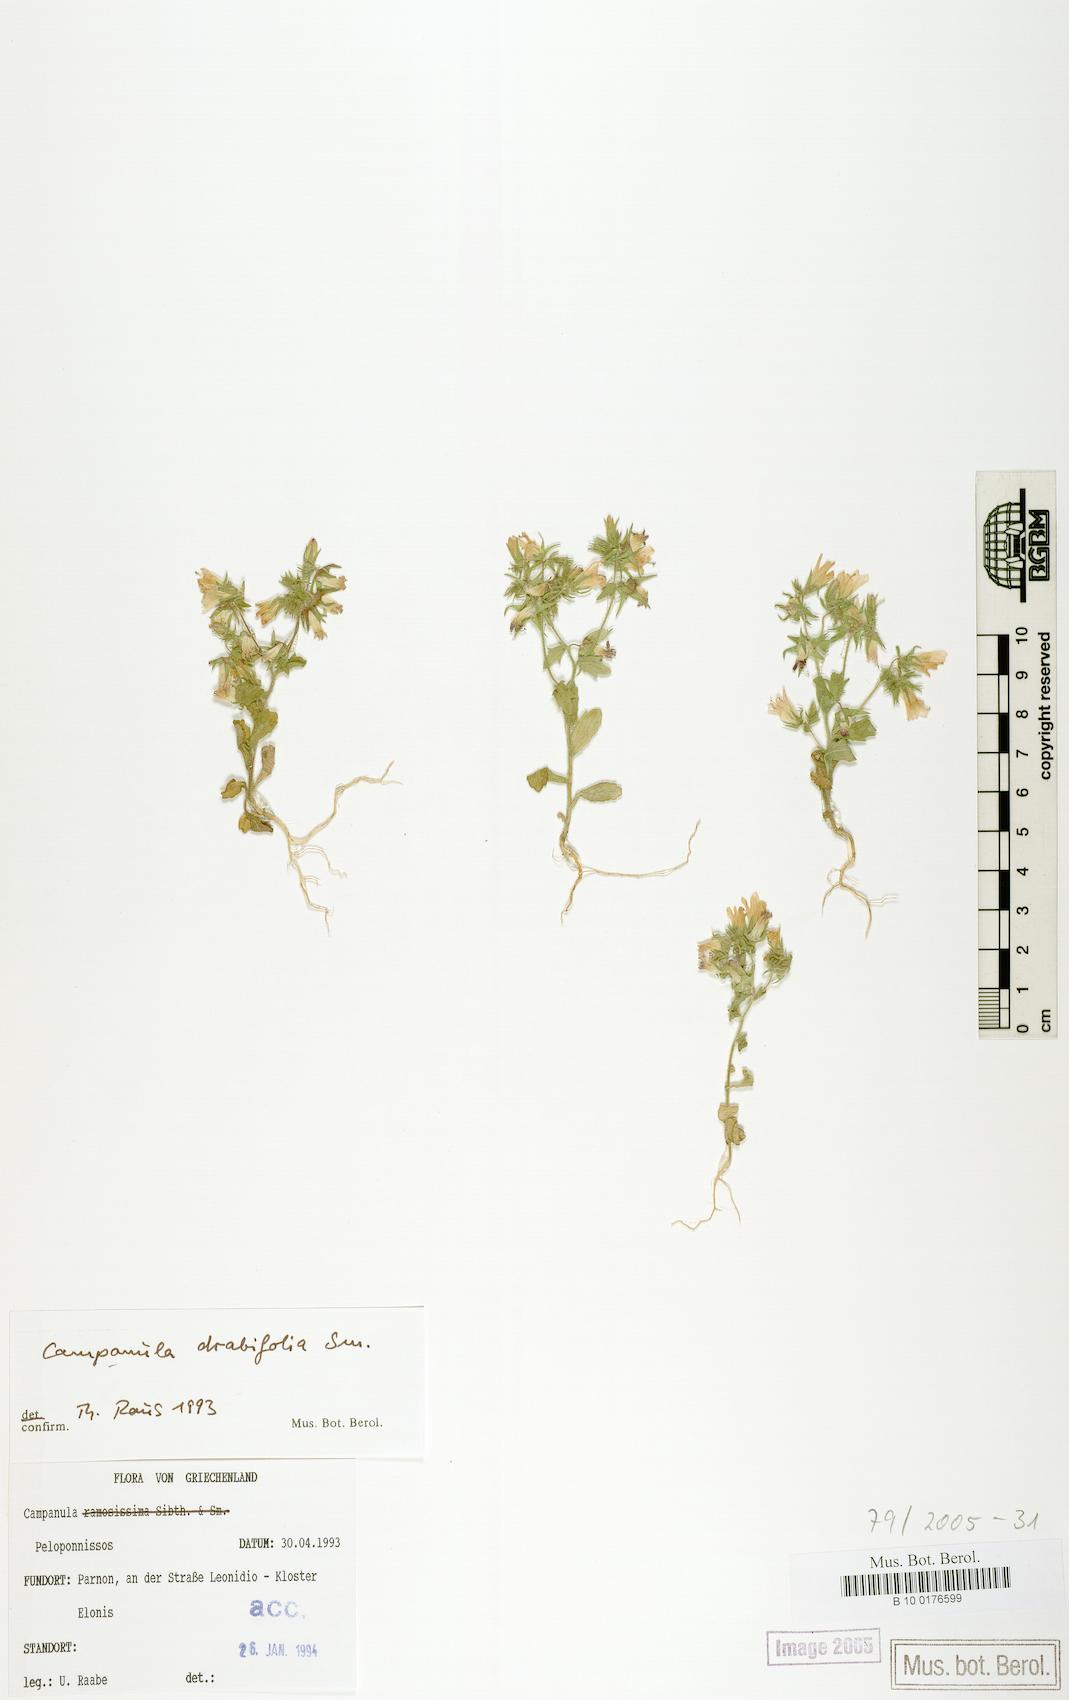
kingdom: Plantae
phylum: Tracheophyta
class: Magnoliopsida
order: Asterales
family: Campanulaceae
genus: Campanula
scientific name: Campanula drabifolia
